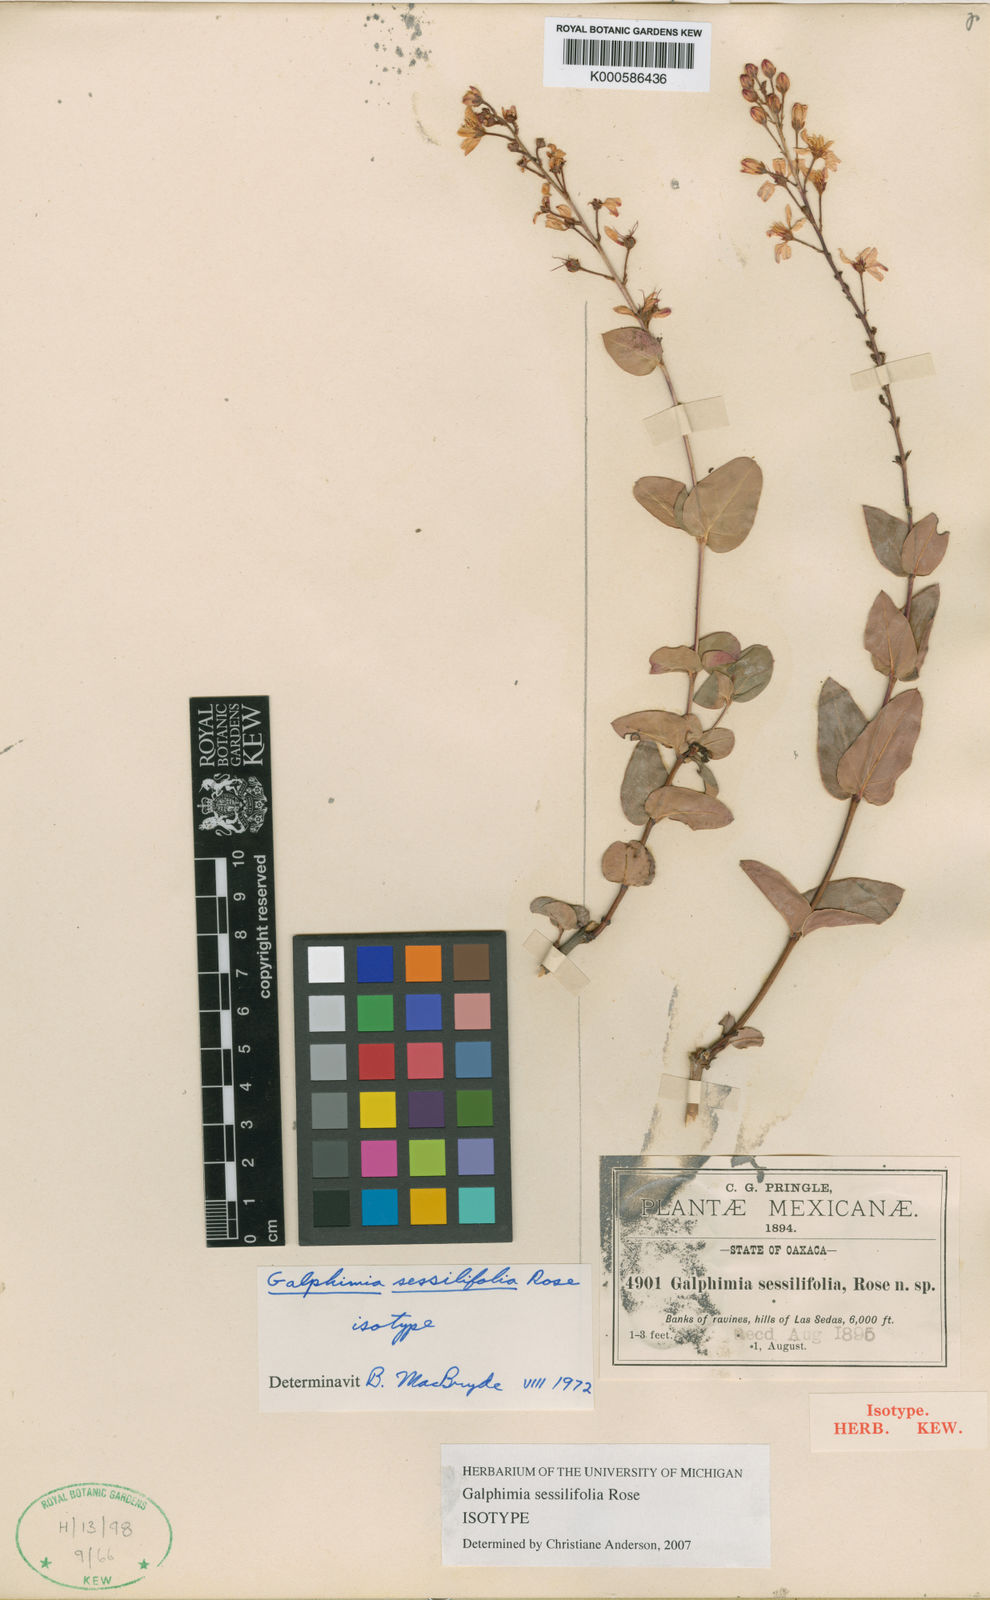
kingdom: Plantae
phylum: Tracheophyta
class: Magnoliopsida
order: Malpighiales
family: Malpighiaceae
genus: Galphimia
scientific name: Galphimia sessilifolia
